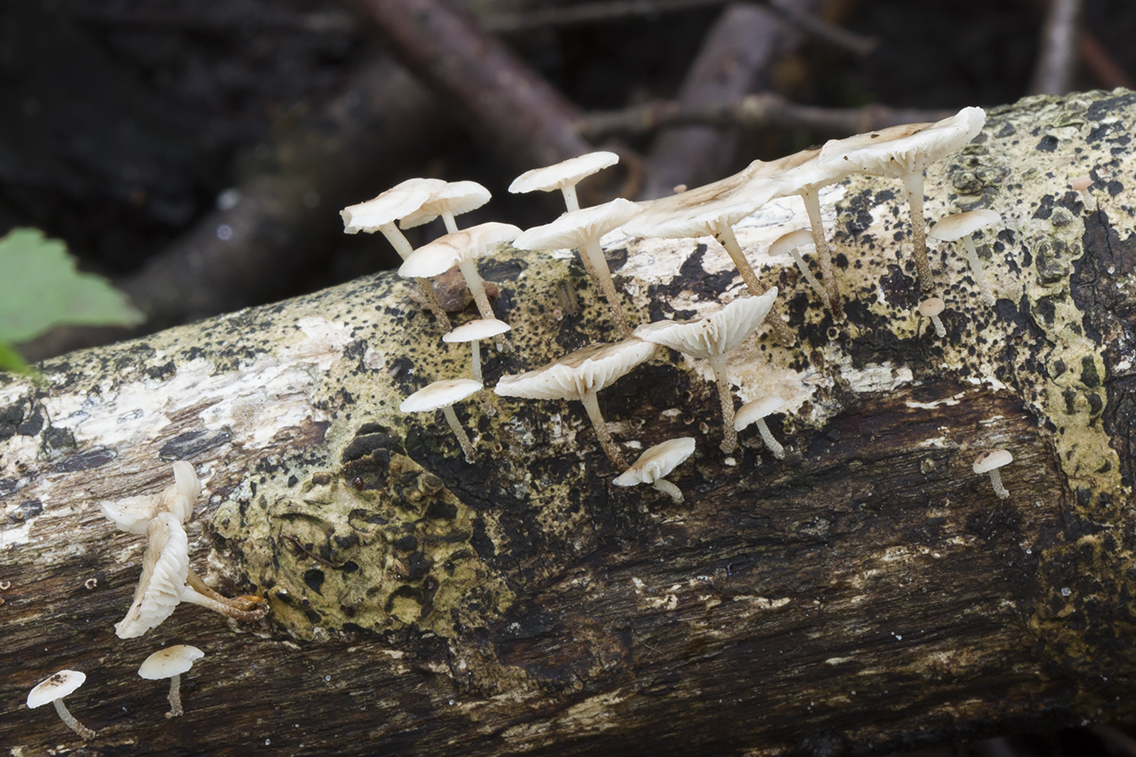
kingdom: Fungi
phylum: Basidiomycota
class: Agaricomycetes
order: Agaricales
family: Omphalotaceae
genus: Collybiopsis
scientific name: Collybiopsis ramealis
